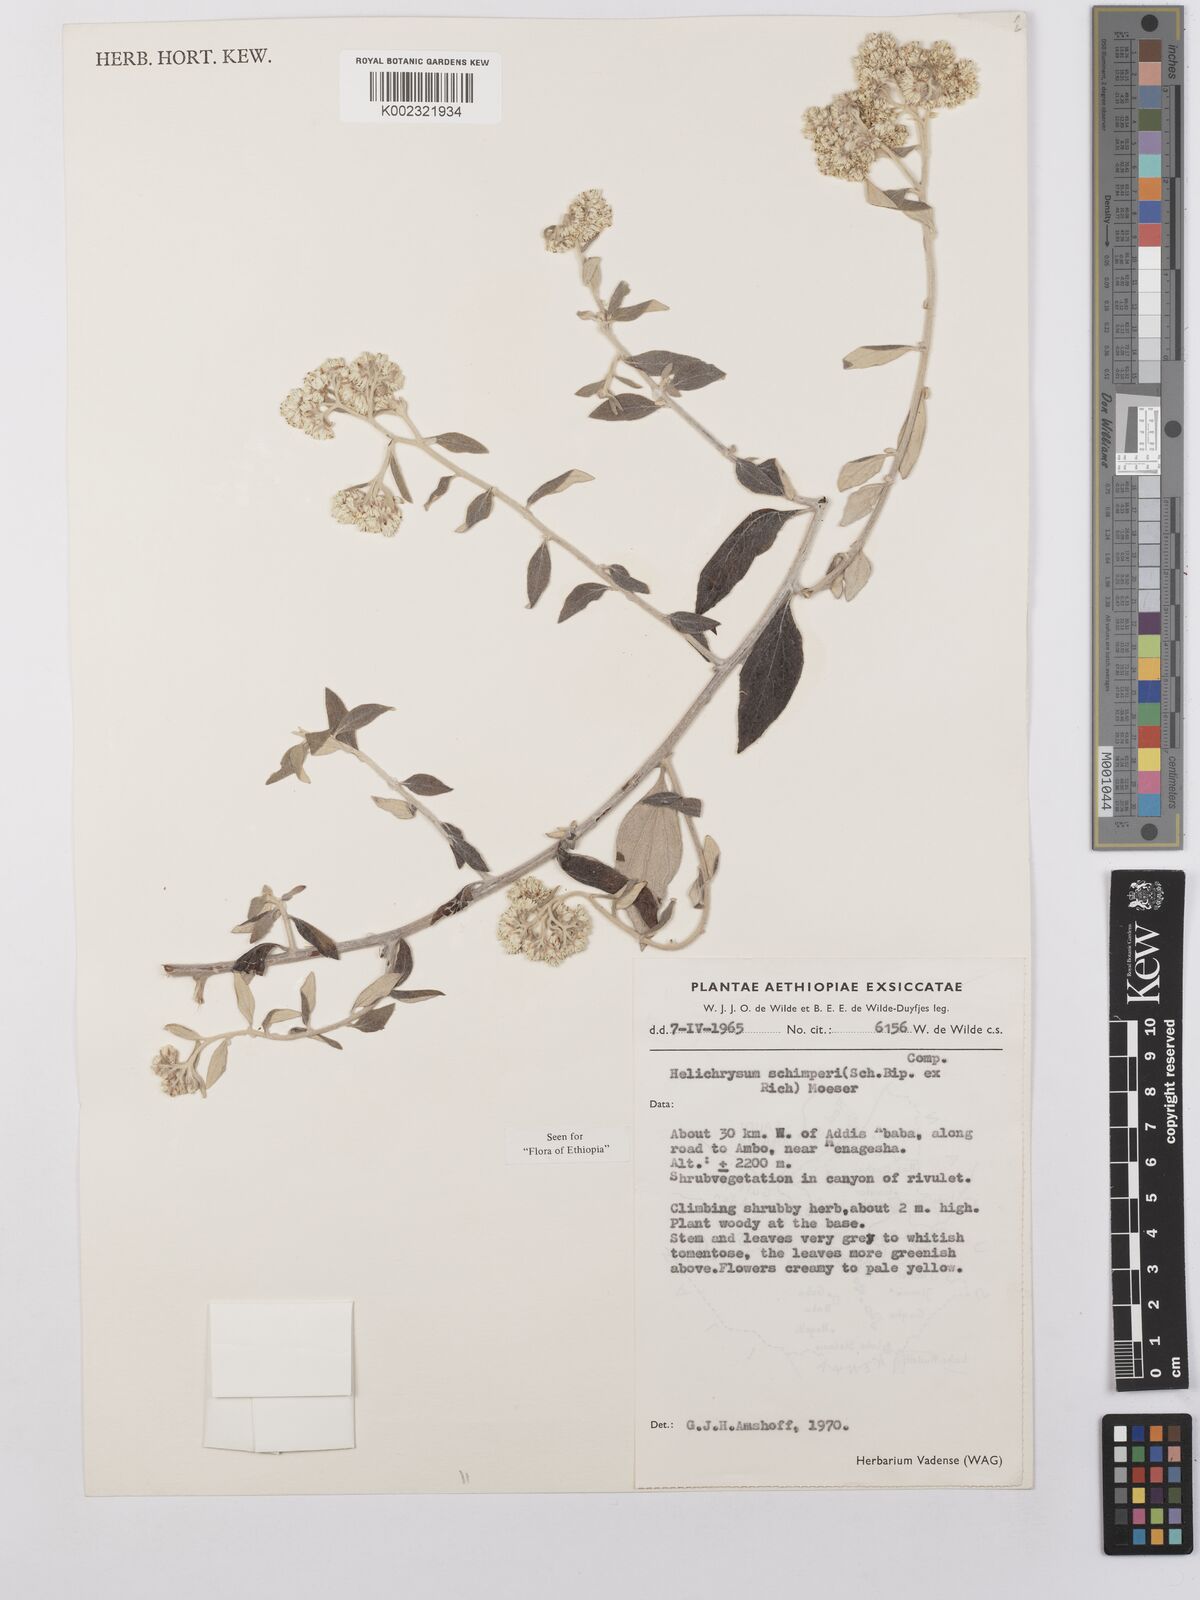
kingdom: Plantae
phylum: Tracheophyta
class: Magnoliopsida
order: Asterales
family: Asteraceae
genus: Helichrysum
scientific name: Helichrysum schimperi
